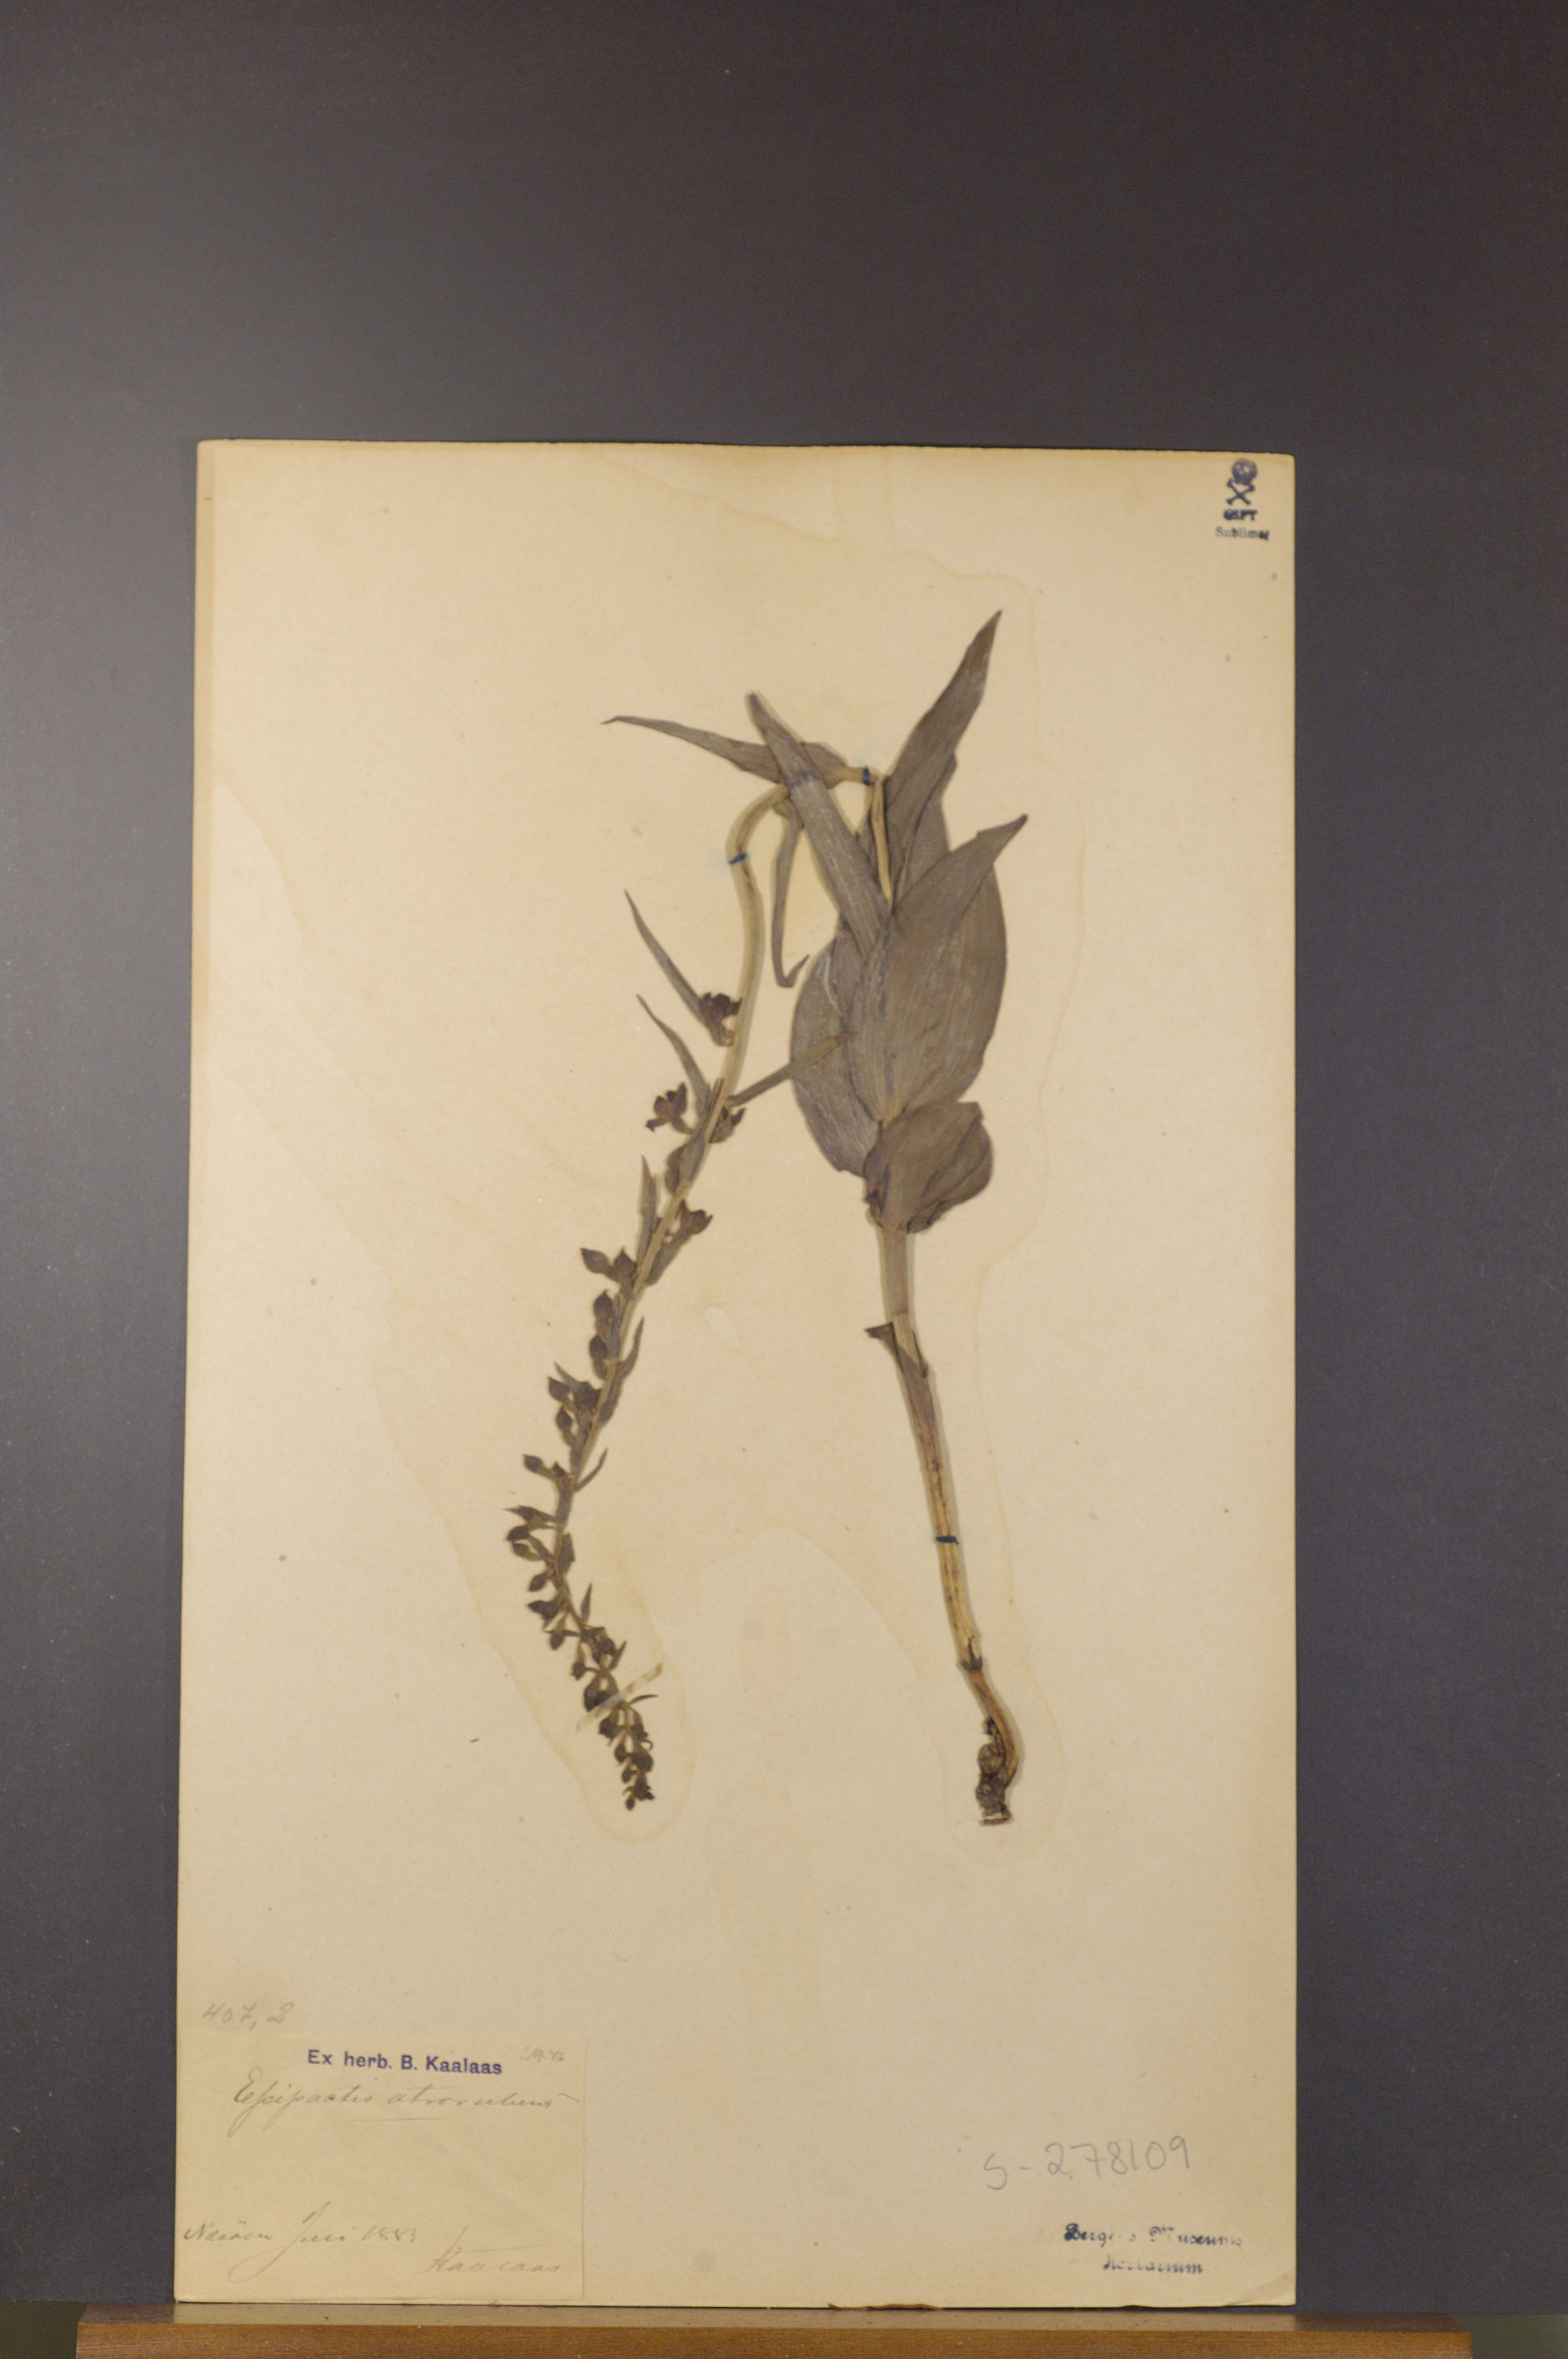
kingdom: Plantae
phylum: Tracheophyta
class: Liliopsida
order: Asparagales
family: Orchidaceae
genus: Epipactis
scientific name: Epipactis atrorubens
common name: Dark-red helleborine
